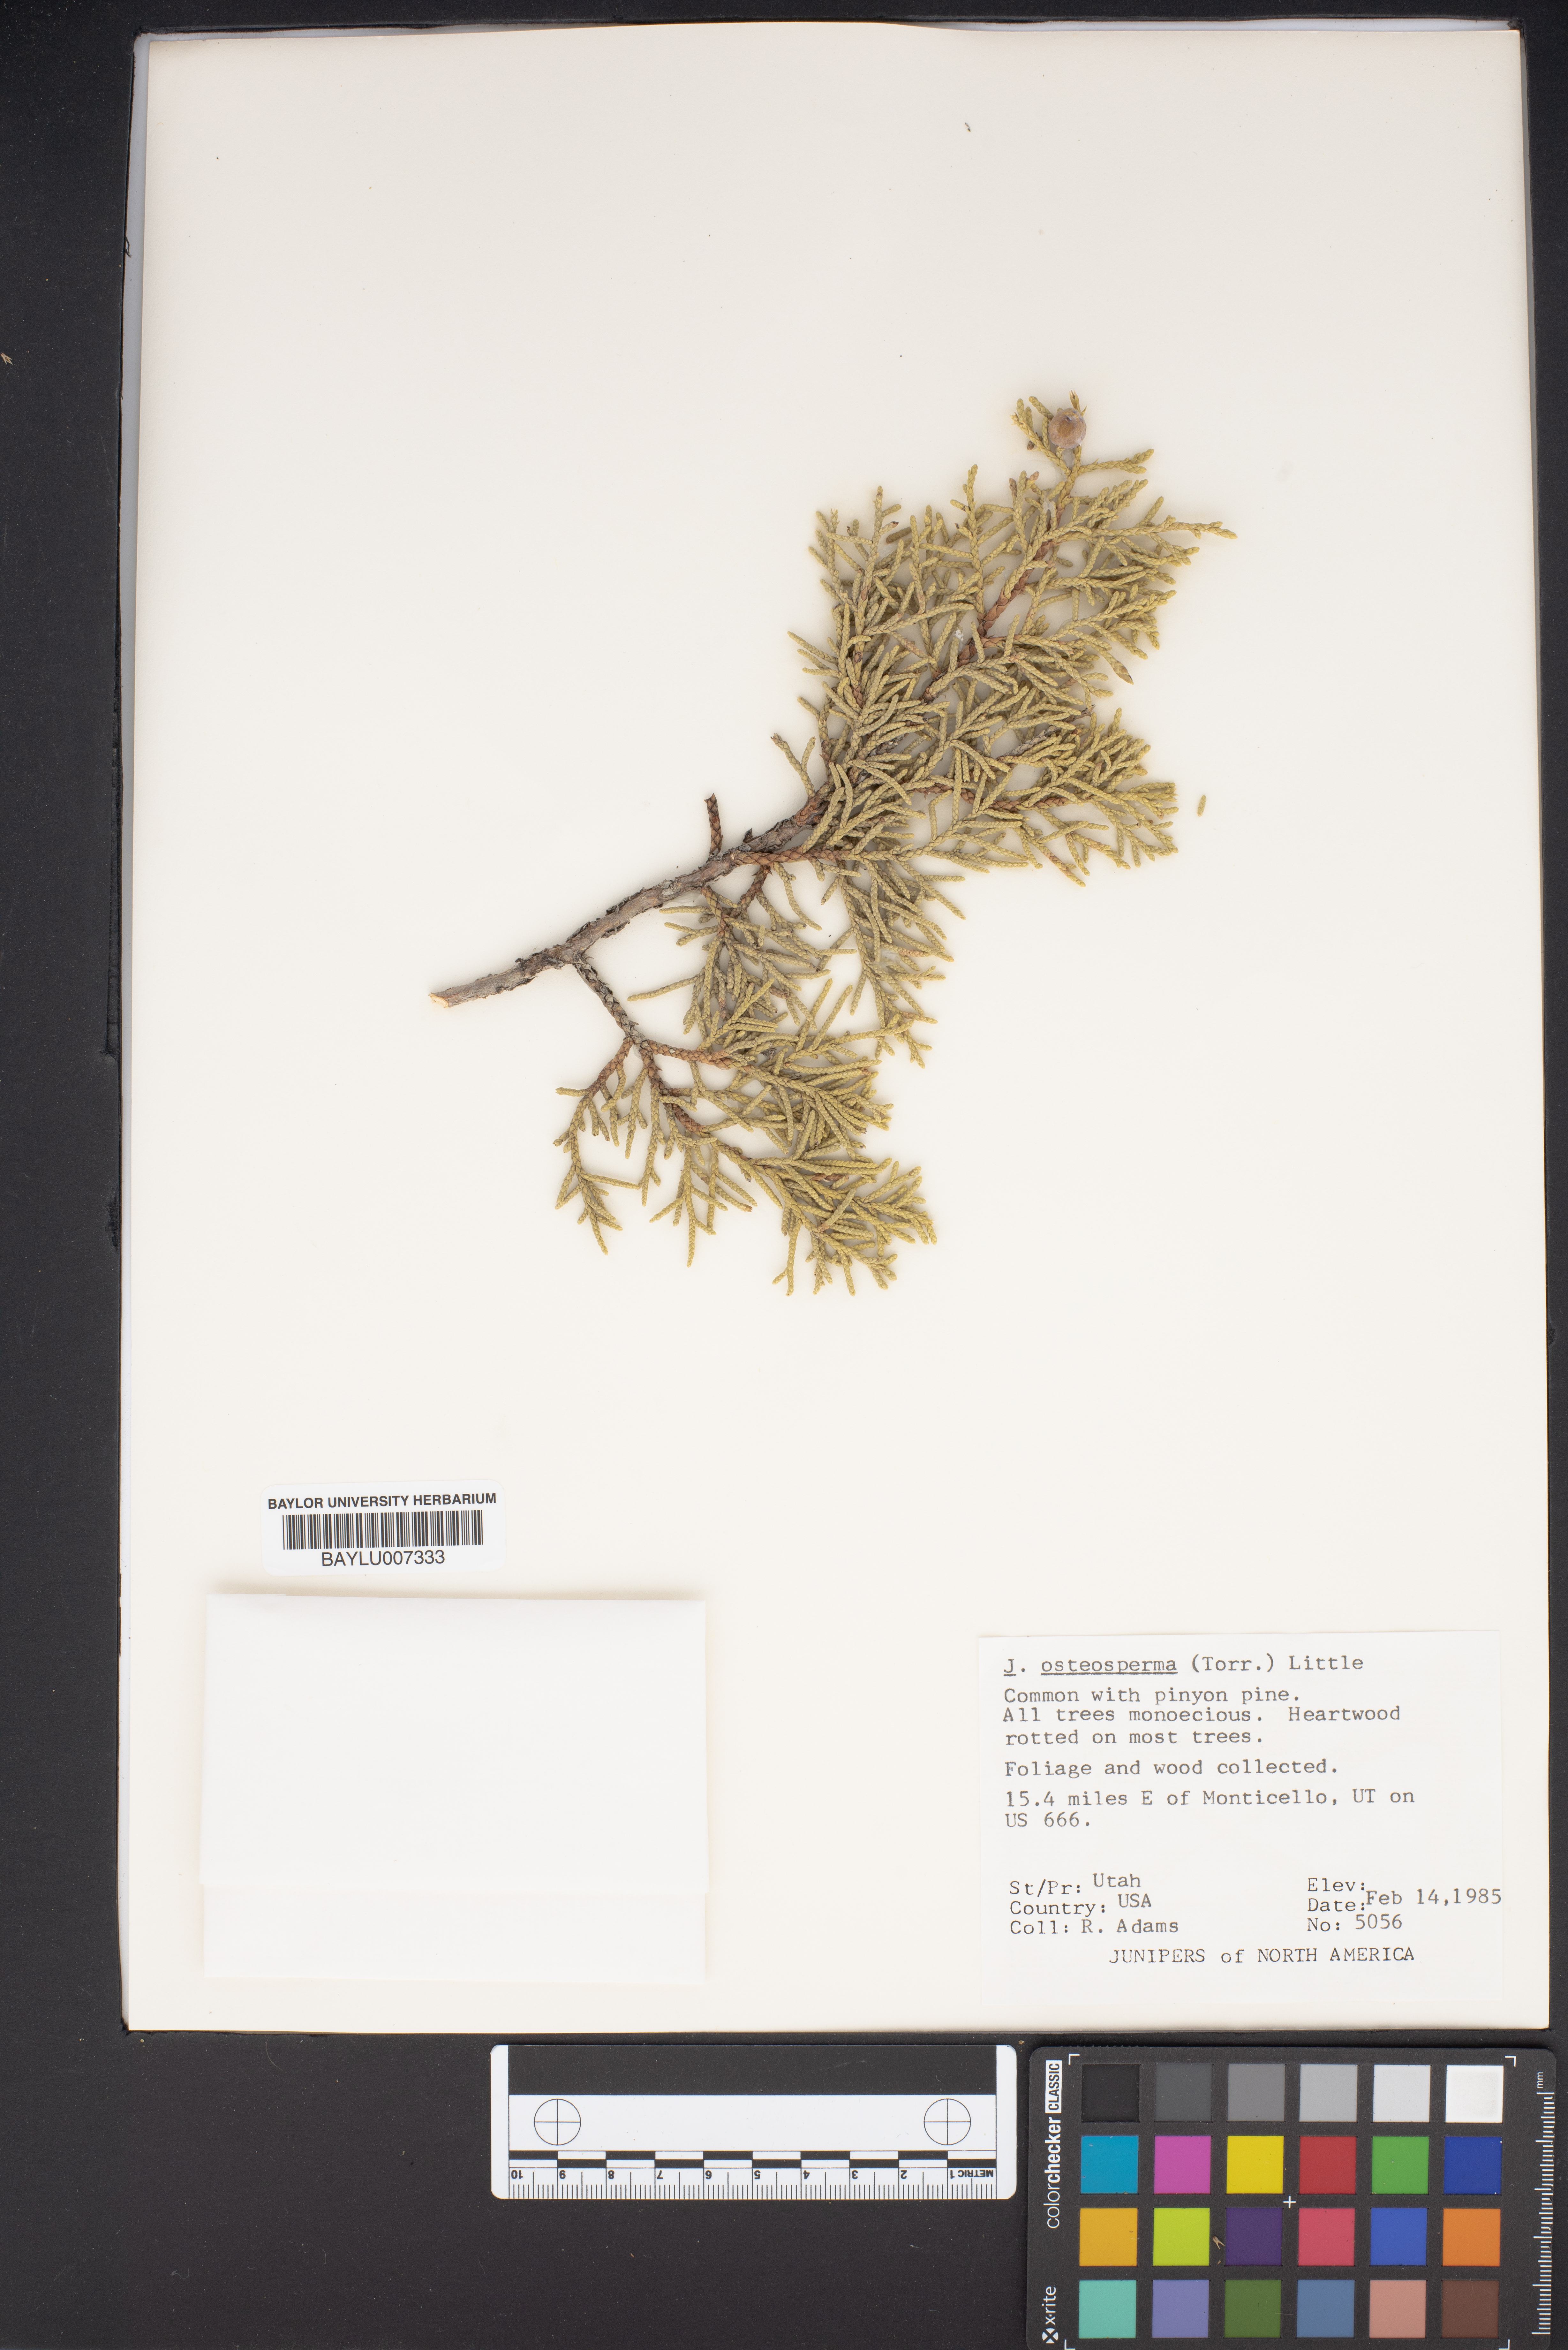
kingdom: Plantae
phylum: Tracheophyta
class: Pinopsida
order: Pinales
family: Cupressaceae
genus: Juniperus
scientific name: Juniperus osteosperma
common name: Utah juniper
